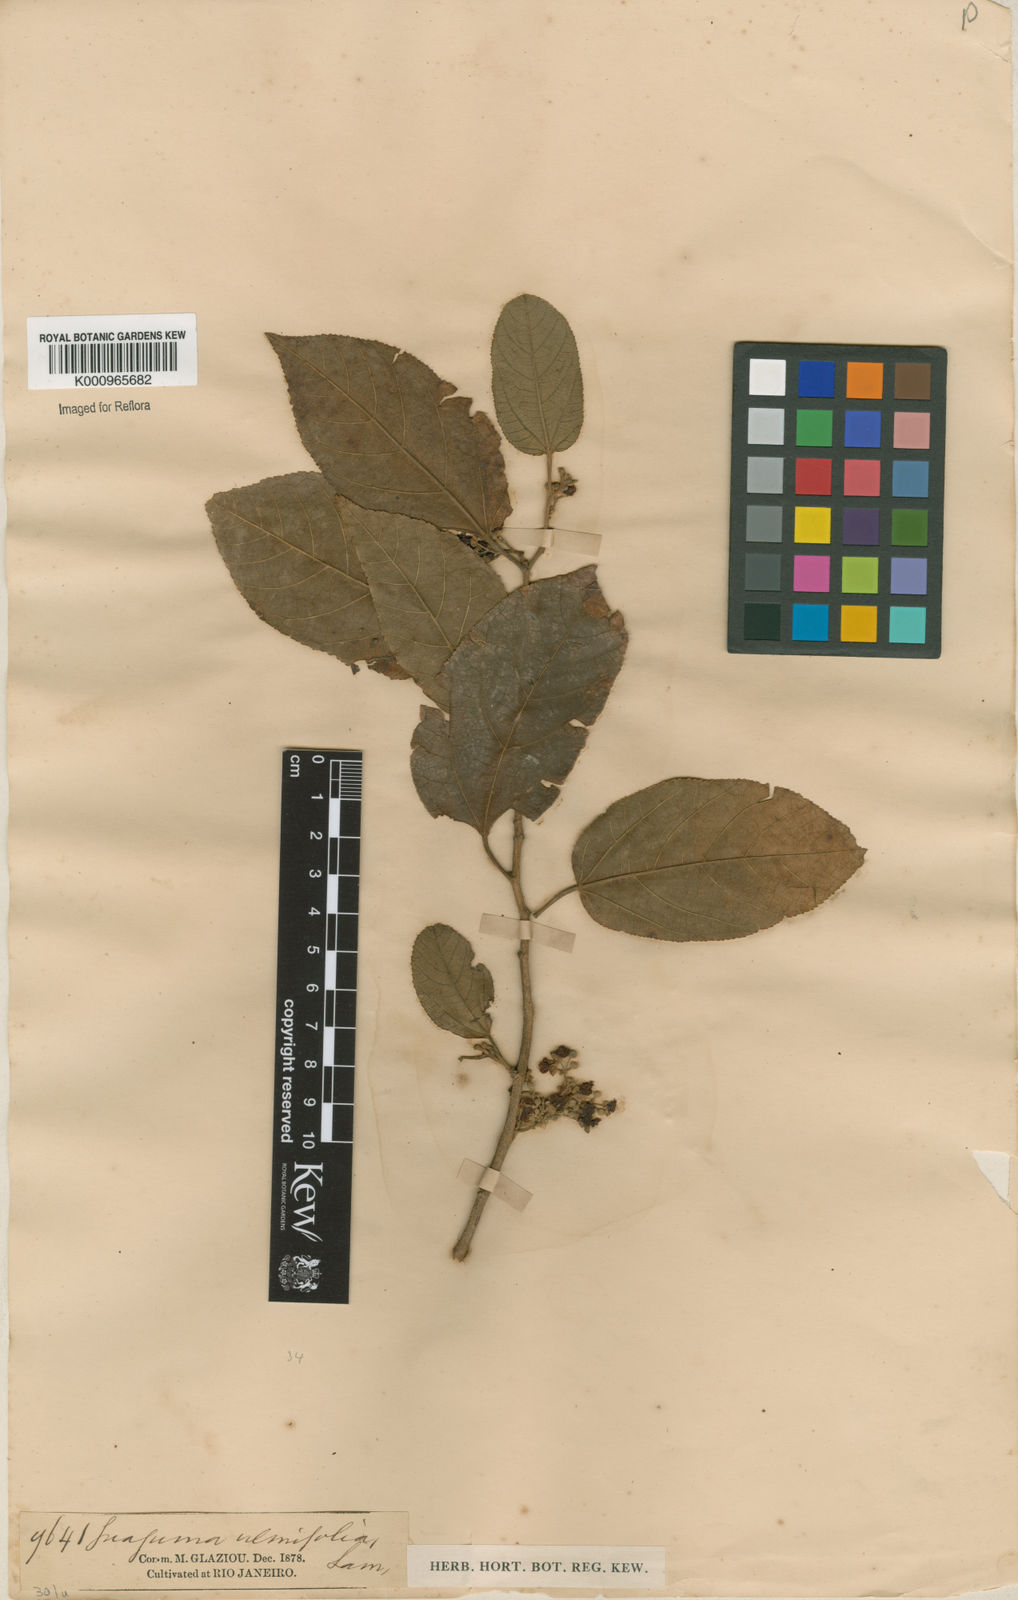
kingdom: Plantae
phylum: Tracheophyta
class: Magnoliopsida
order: Malvales
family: Malvaceae
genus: Guazuma
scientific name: Guazuma ulmifolia
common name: Bastard-cedar
